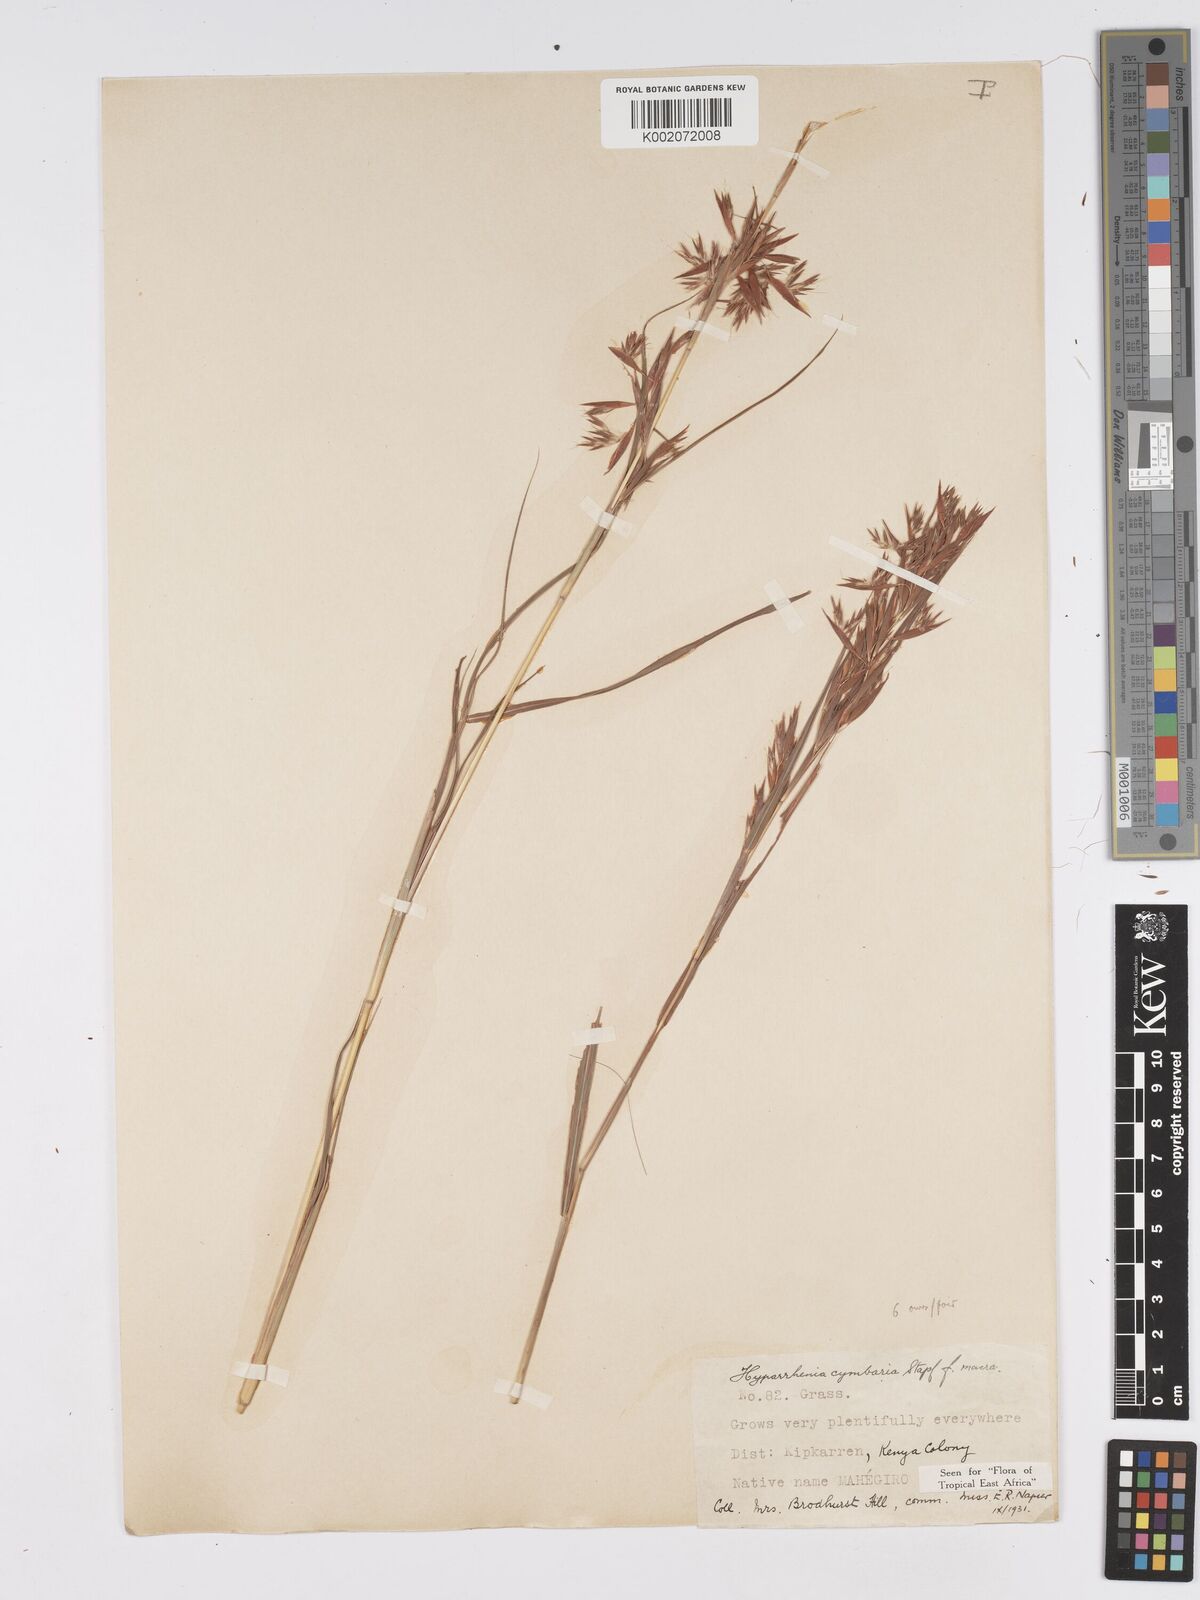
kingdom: Plantae
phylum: Tracheophyta
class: Liliopsida
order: Poales
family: Poaceae
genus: Hyparrhenia
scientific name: Hyparrhenia cymbaria
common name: Boat thatching grass
